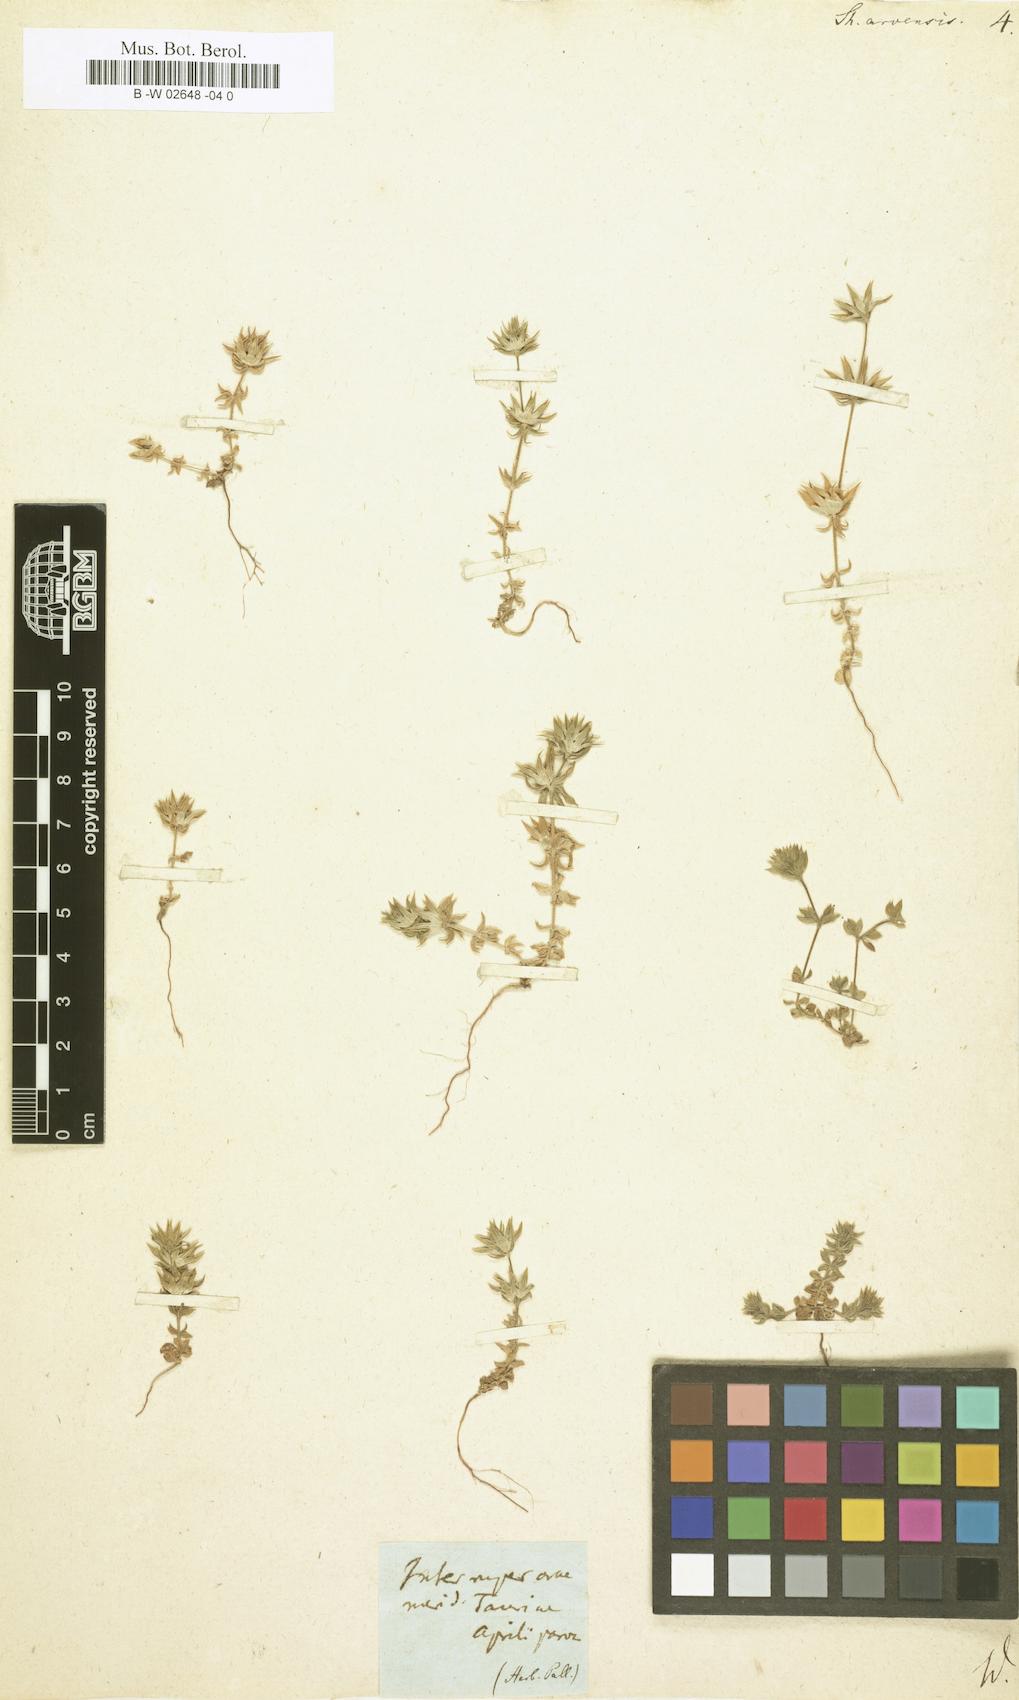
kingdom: Plantae
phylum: Tracheophyta
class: Magnoliopsida
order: Gentianales
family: Rubiaceae
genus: Sherardia
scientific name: Sherardia arvensis
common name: Field madder
